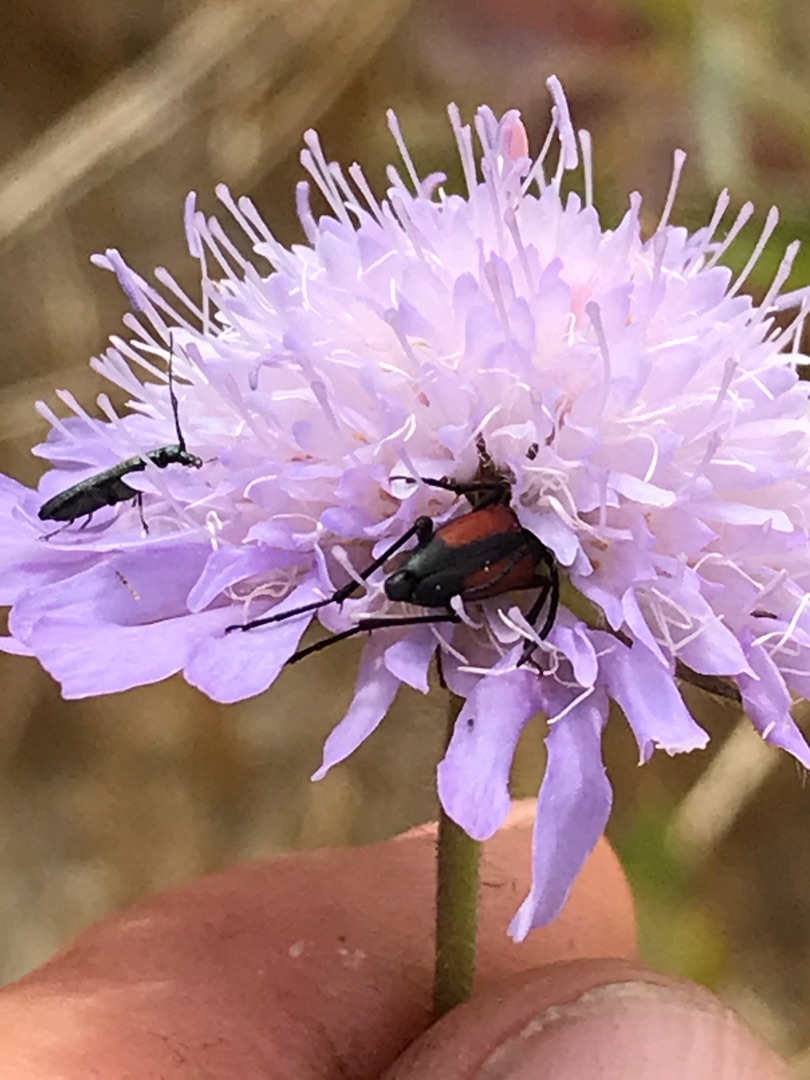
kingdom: Animalia
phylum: Arthropoda
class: Insecta
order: Coleoptera
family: Cerambycidae
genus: Stenurella
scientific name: Stenurella melanura
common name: Sortsømmet blomsterbuk
